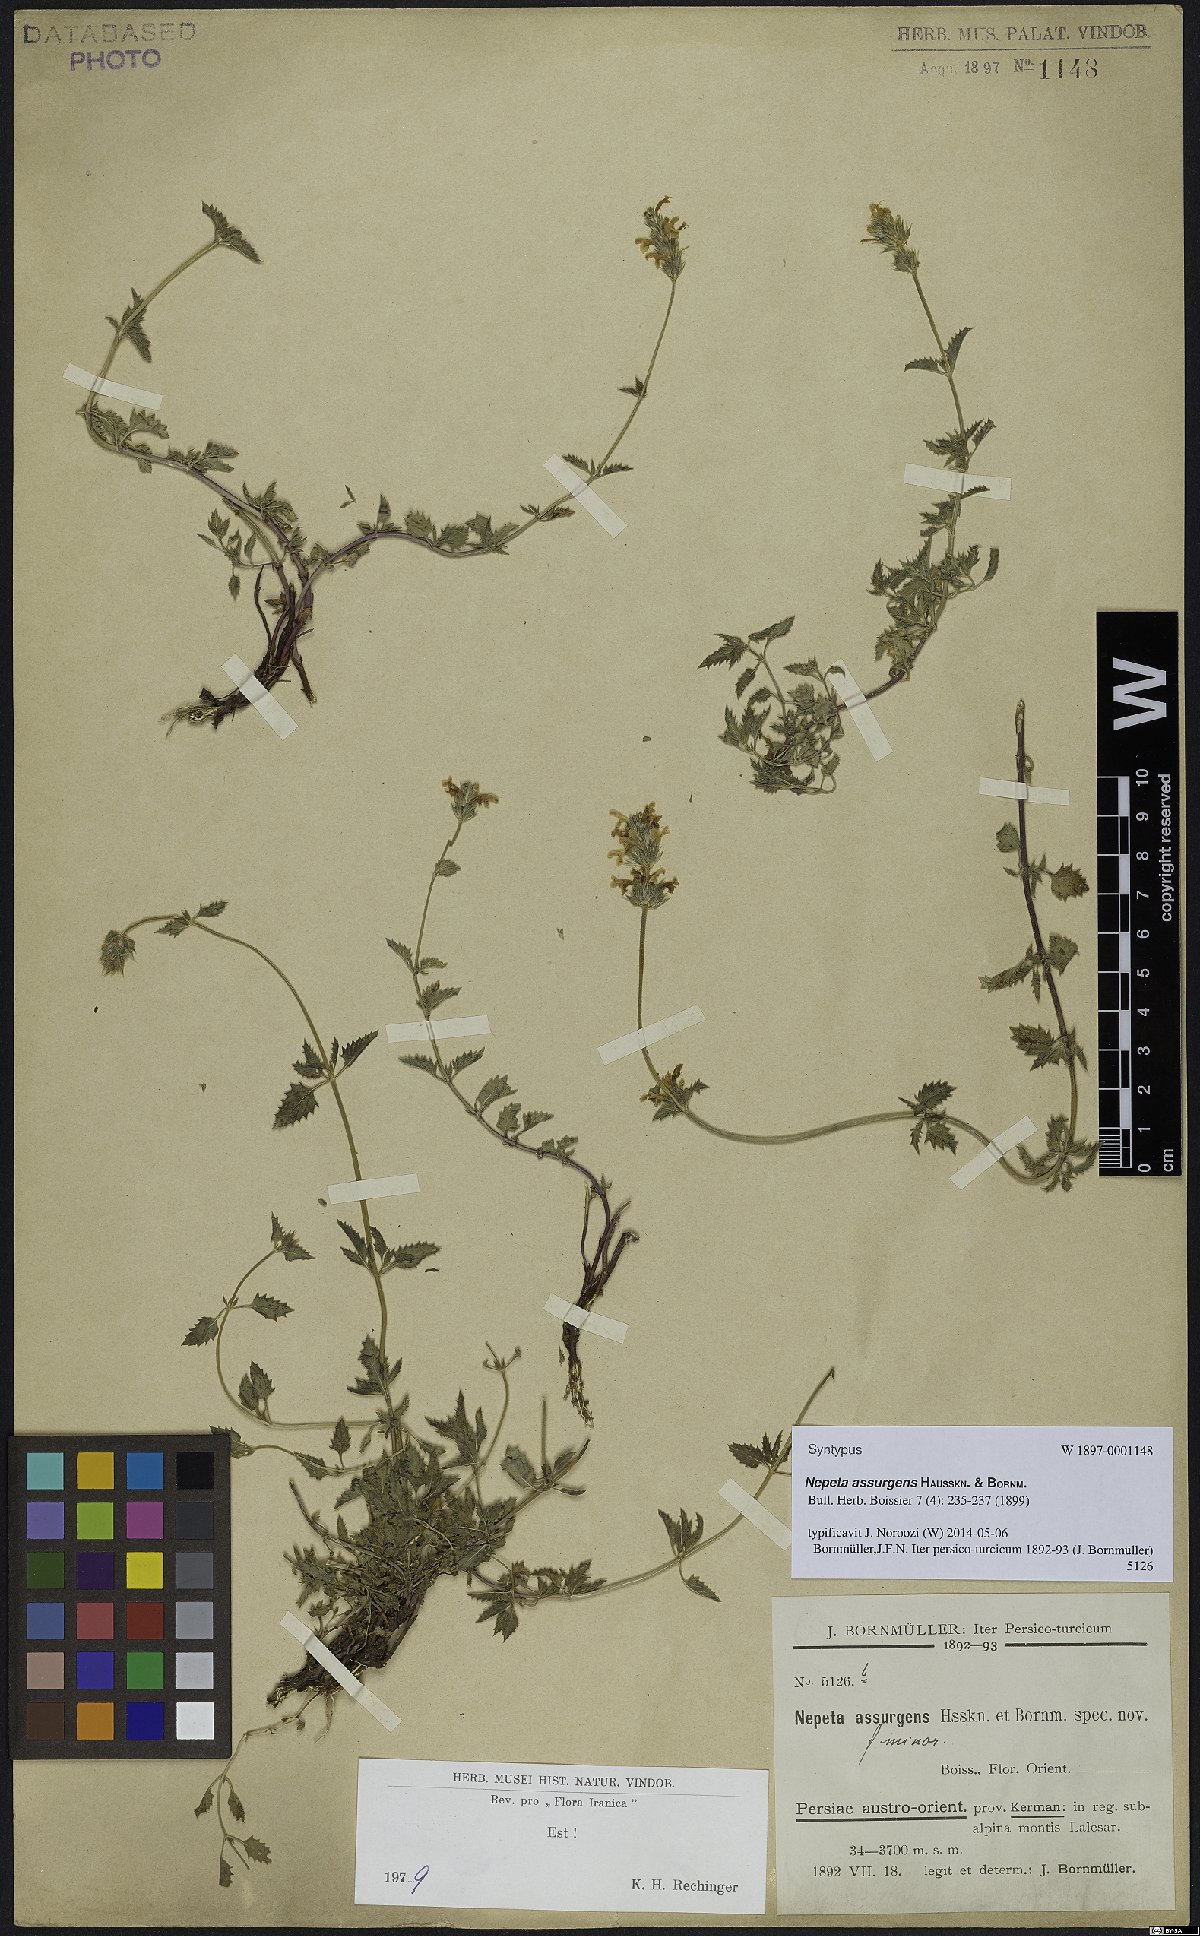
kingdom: Plantae
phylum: Tracheophyta
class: Magnoliopsida
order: Lamiales
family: Lamiaceae
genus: Nepeta
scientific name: Nepeta assurgens
